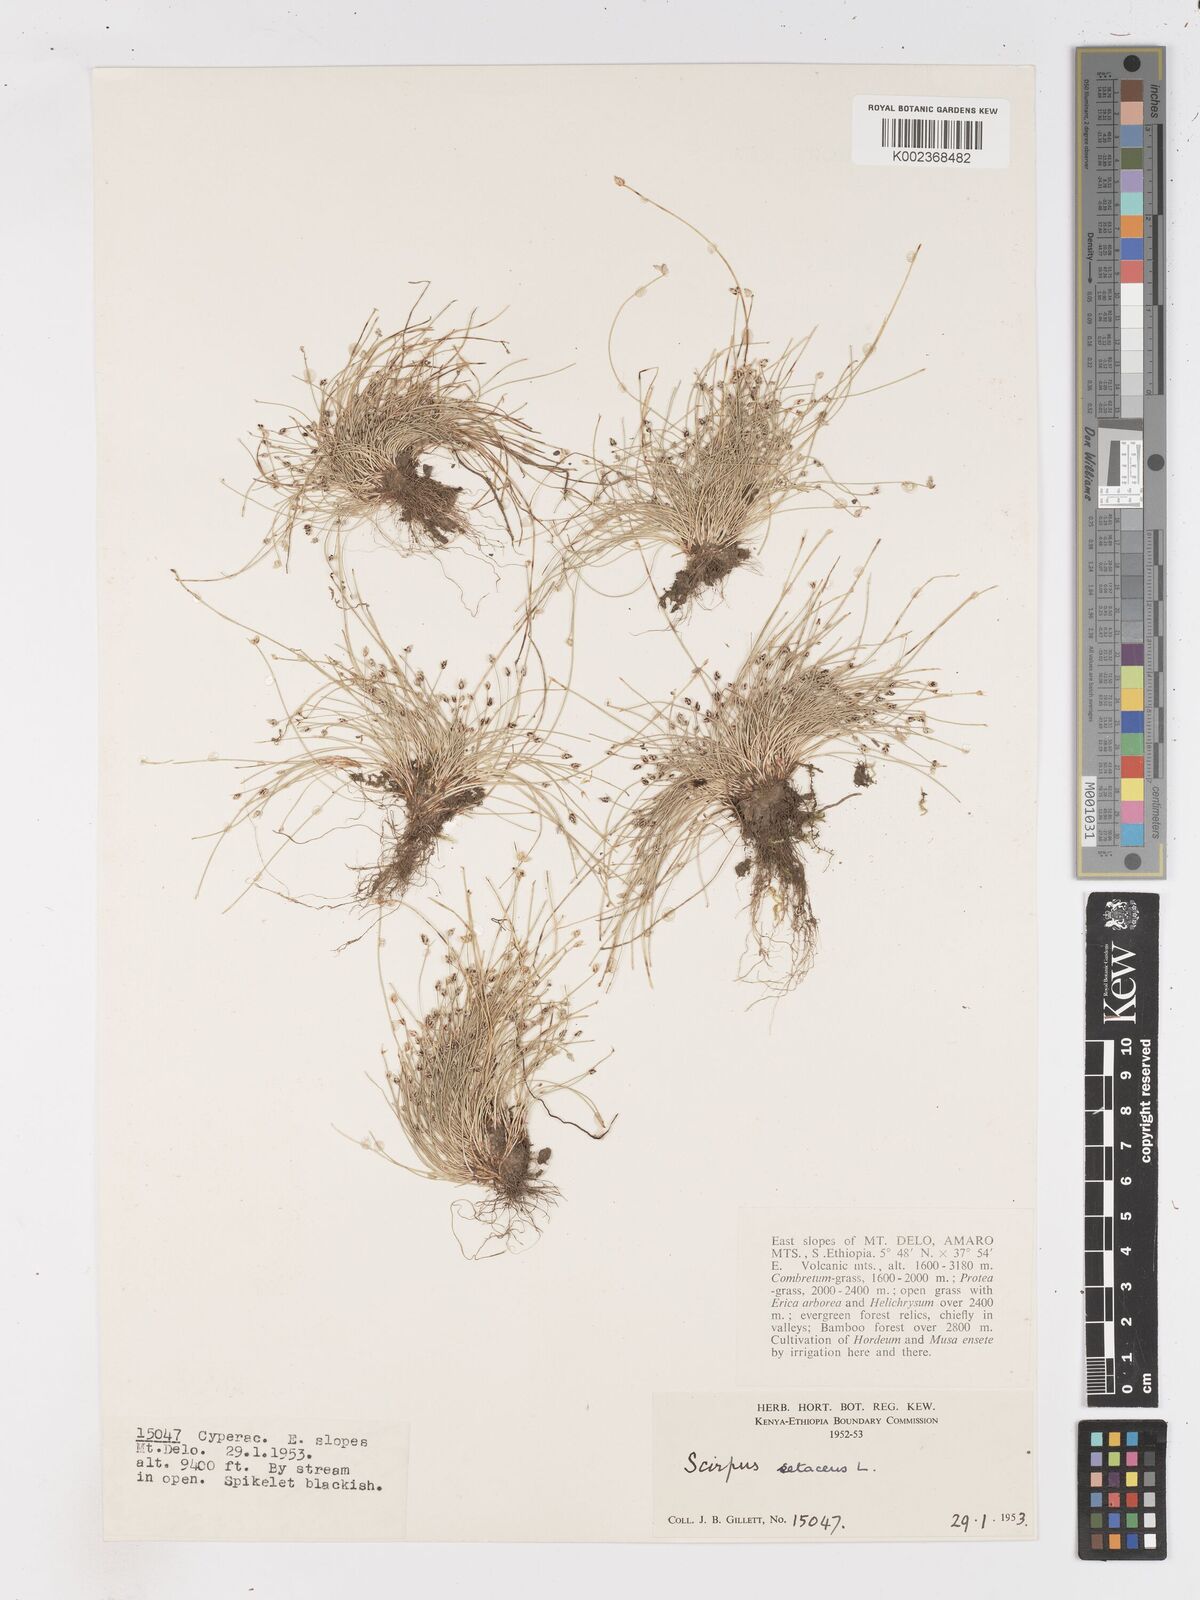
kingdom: Plantae
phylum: Tracheophyta
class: Liliopsida
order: Poales
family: Cyperaceae
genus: Isolepis
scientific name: Isolepis setacea
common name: Bristle club-rush
